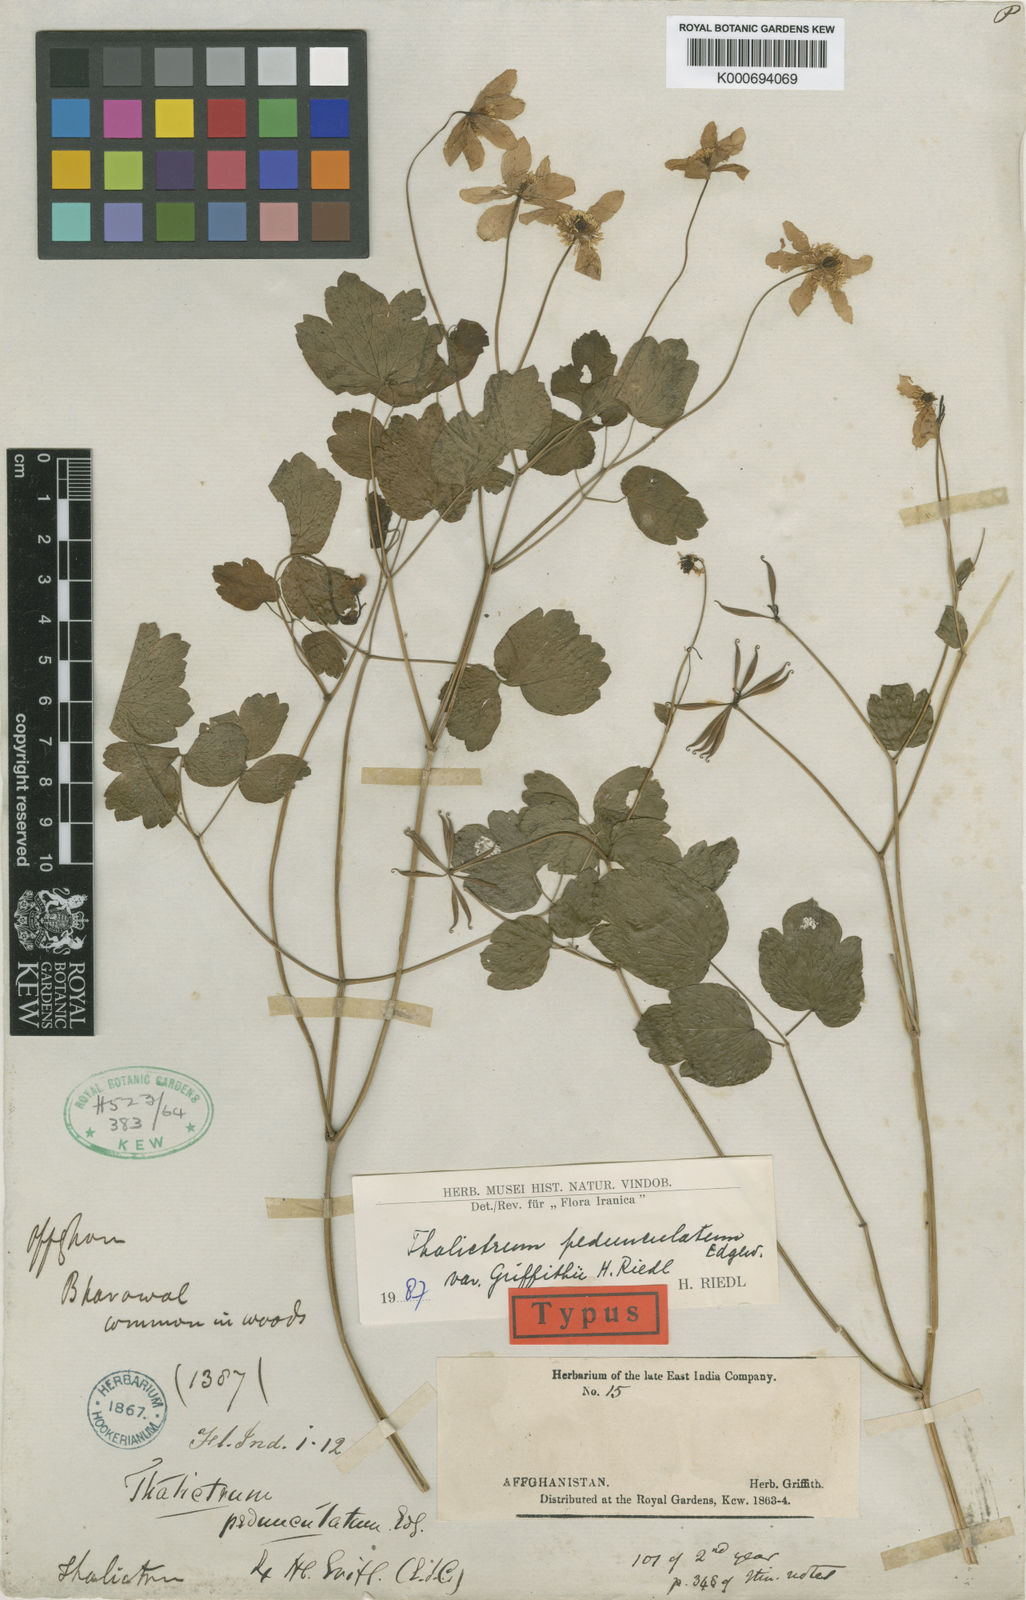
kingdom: Plantae
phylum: Tracheophyta
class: Magnoliopsida
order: Ranunculales
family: Ranunculaceae
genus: Thalictrum
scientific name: Thalictrum pedunculatum
